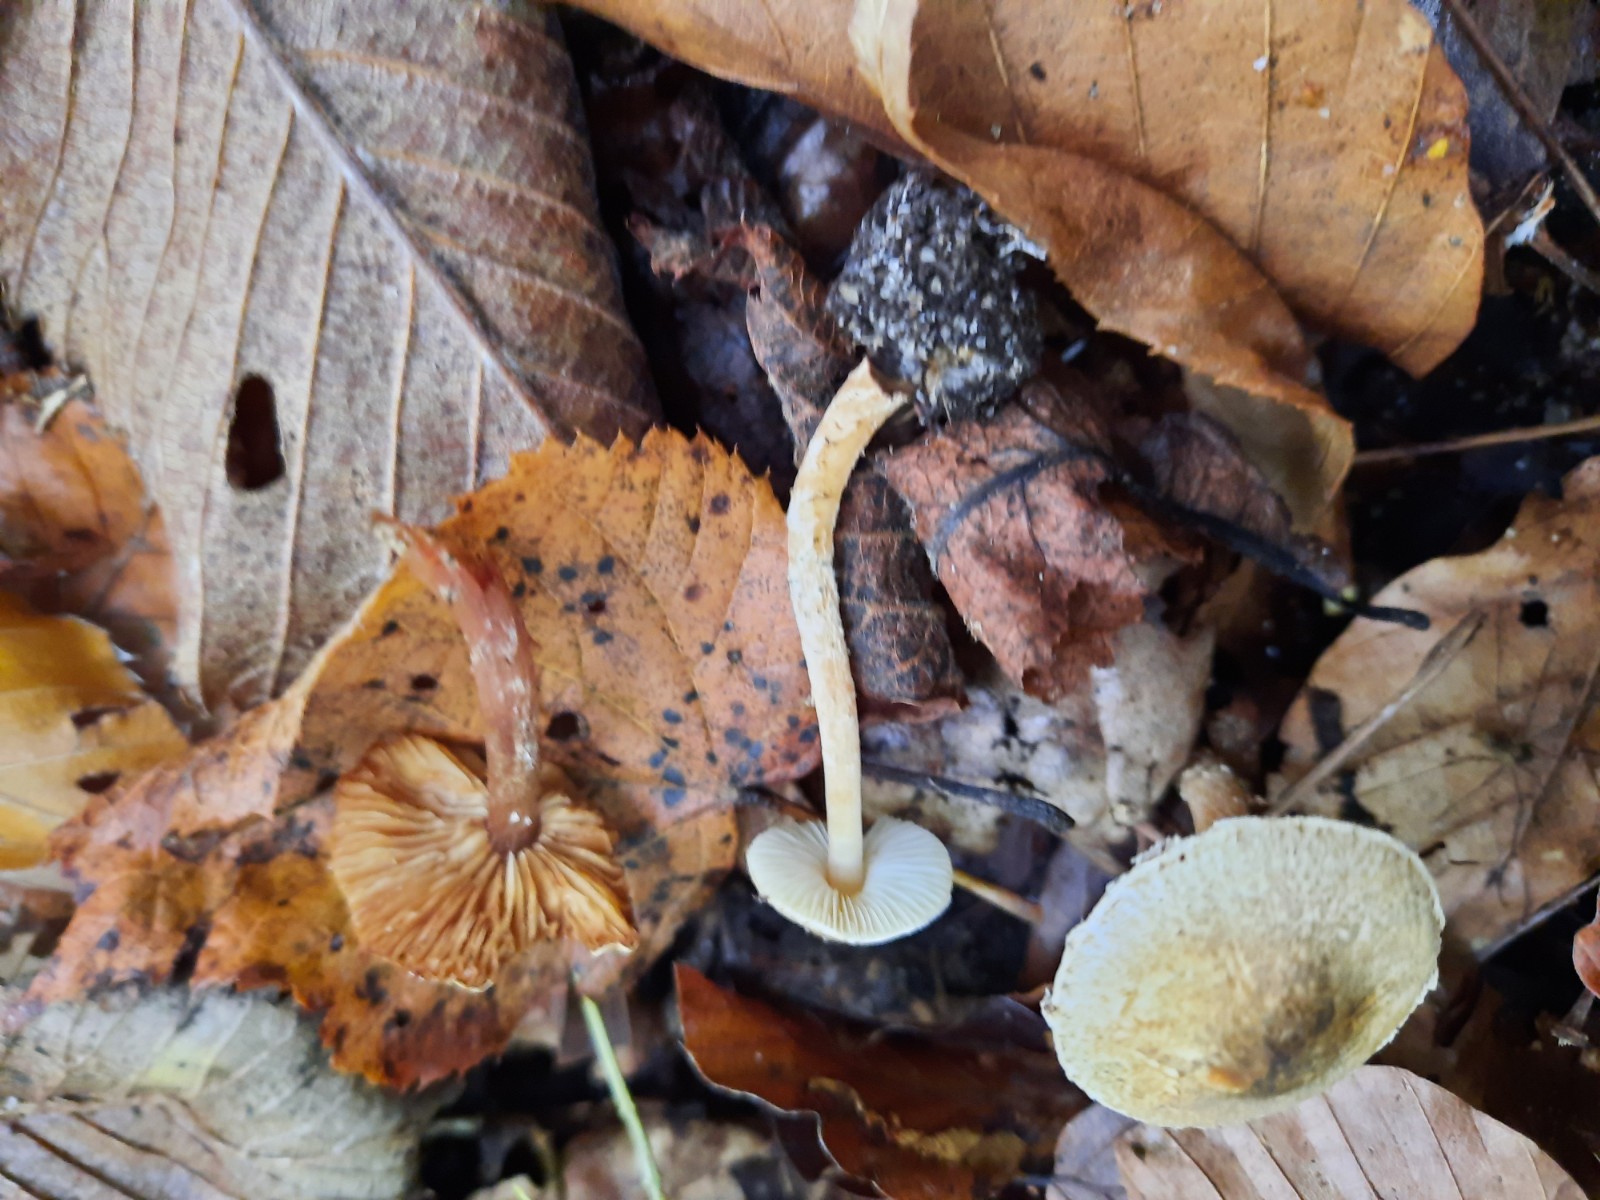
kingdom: Fungi
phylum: Basidiomycota
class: Agaricomycetes
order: Agaricales
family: Agaricaceae
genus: Lepiota
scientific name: Lepiota grangei
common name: grønskællet parasolhat
